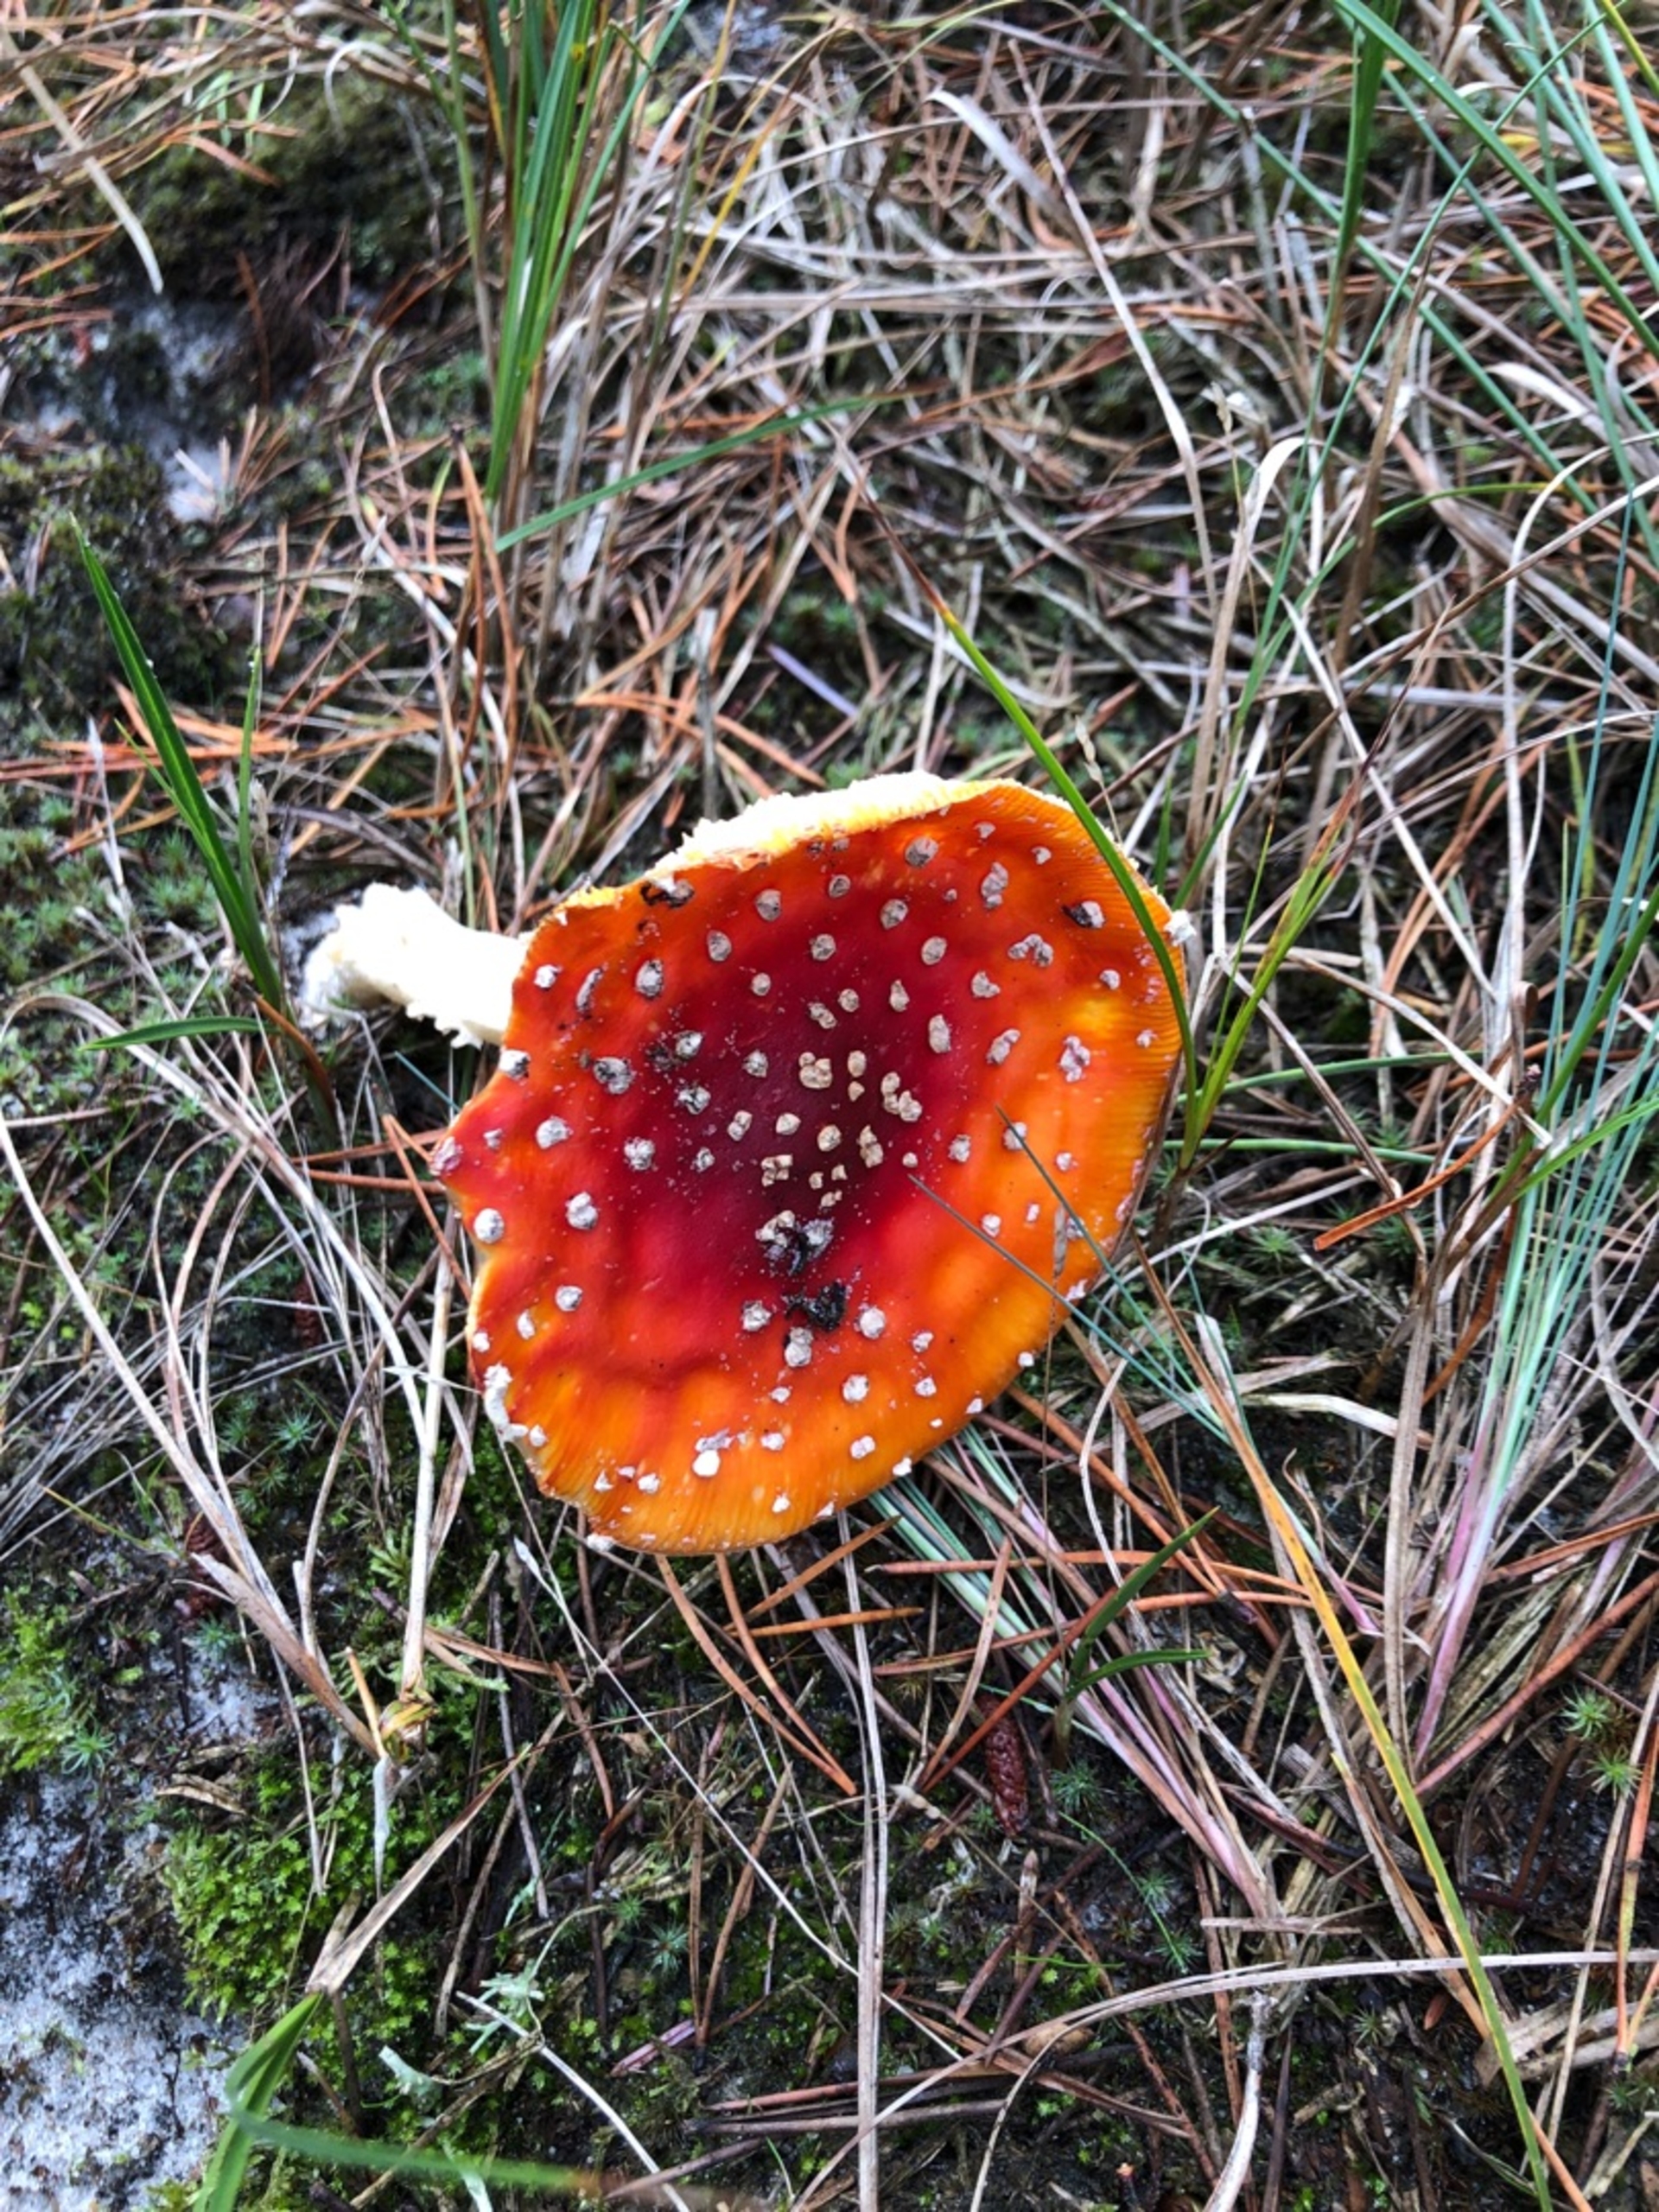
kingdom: Fungi
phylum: Basidiomycota
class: Agaricomycetes
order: Agaricales
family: Amanitaceae
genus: Amanita
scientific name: Amanita muscaria
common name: Rød fluesvamp
